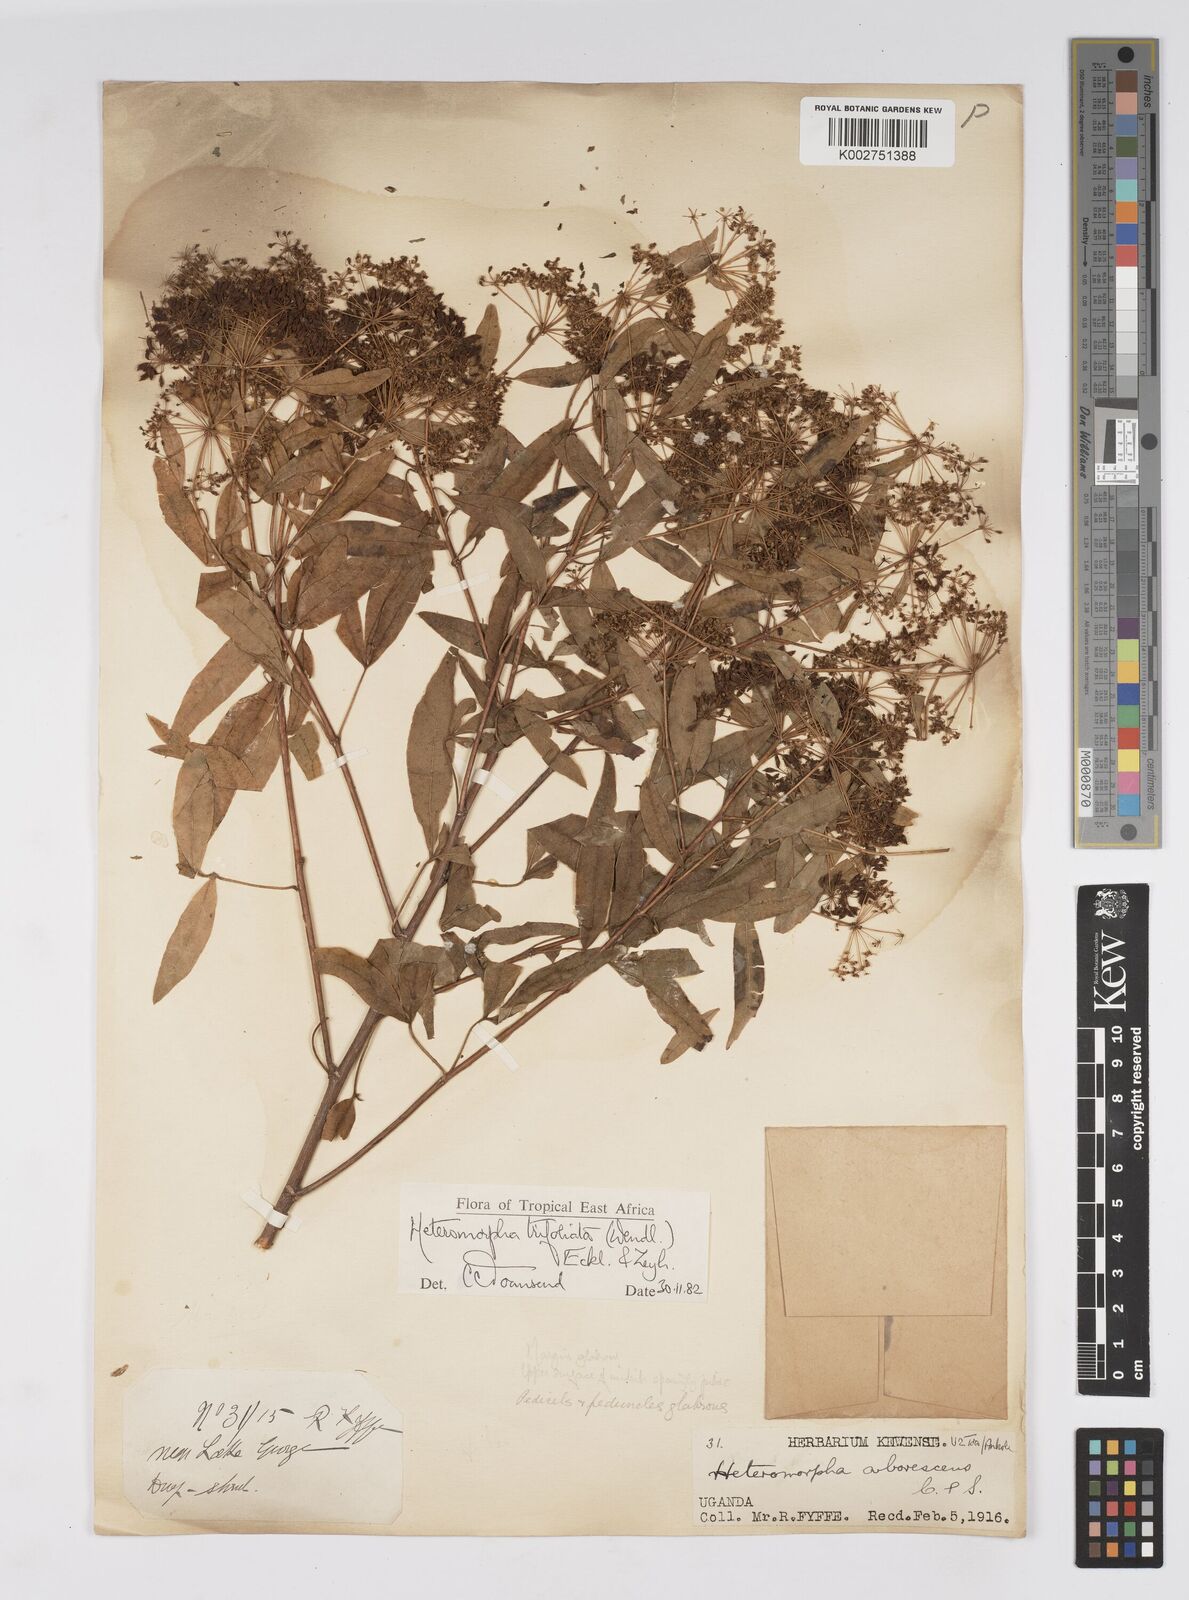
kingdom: Plantae
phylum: Tracheophyta
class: Magnoliopsida
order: Apiales
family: Apiaceae
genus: Heteromorpha
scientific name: Heteromorpha arborescens
